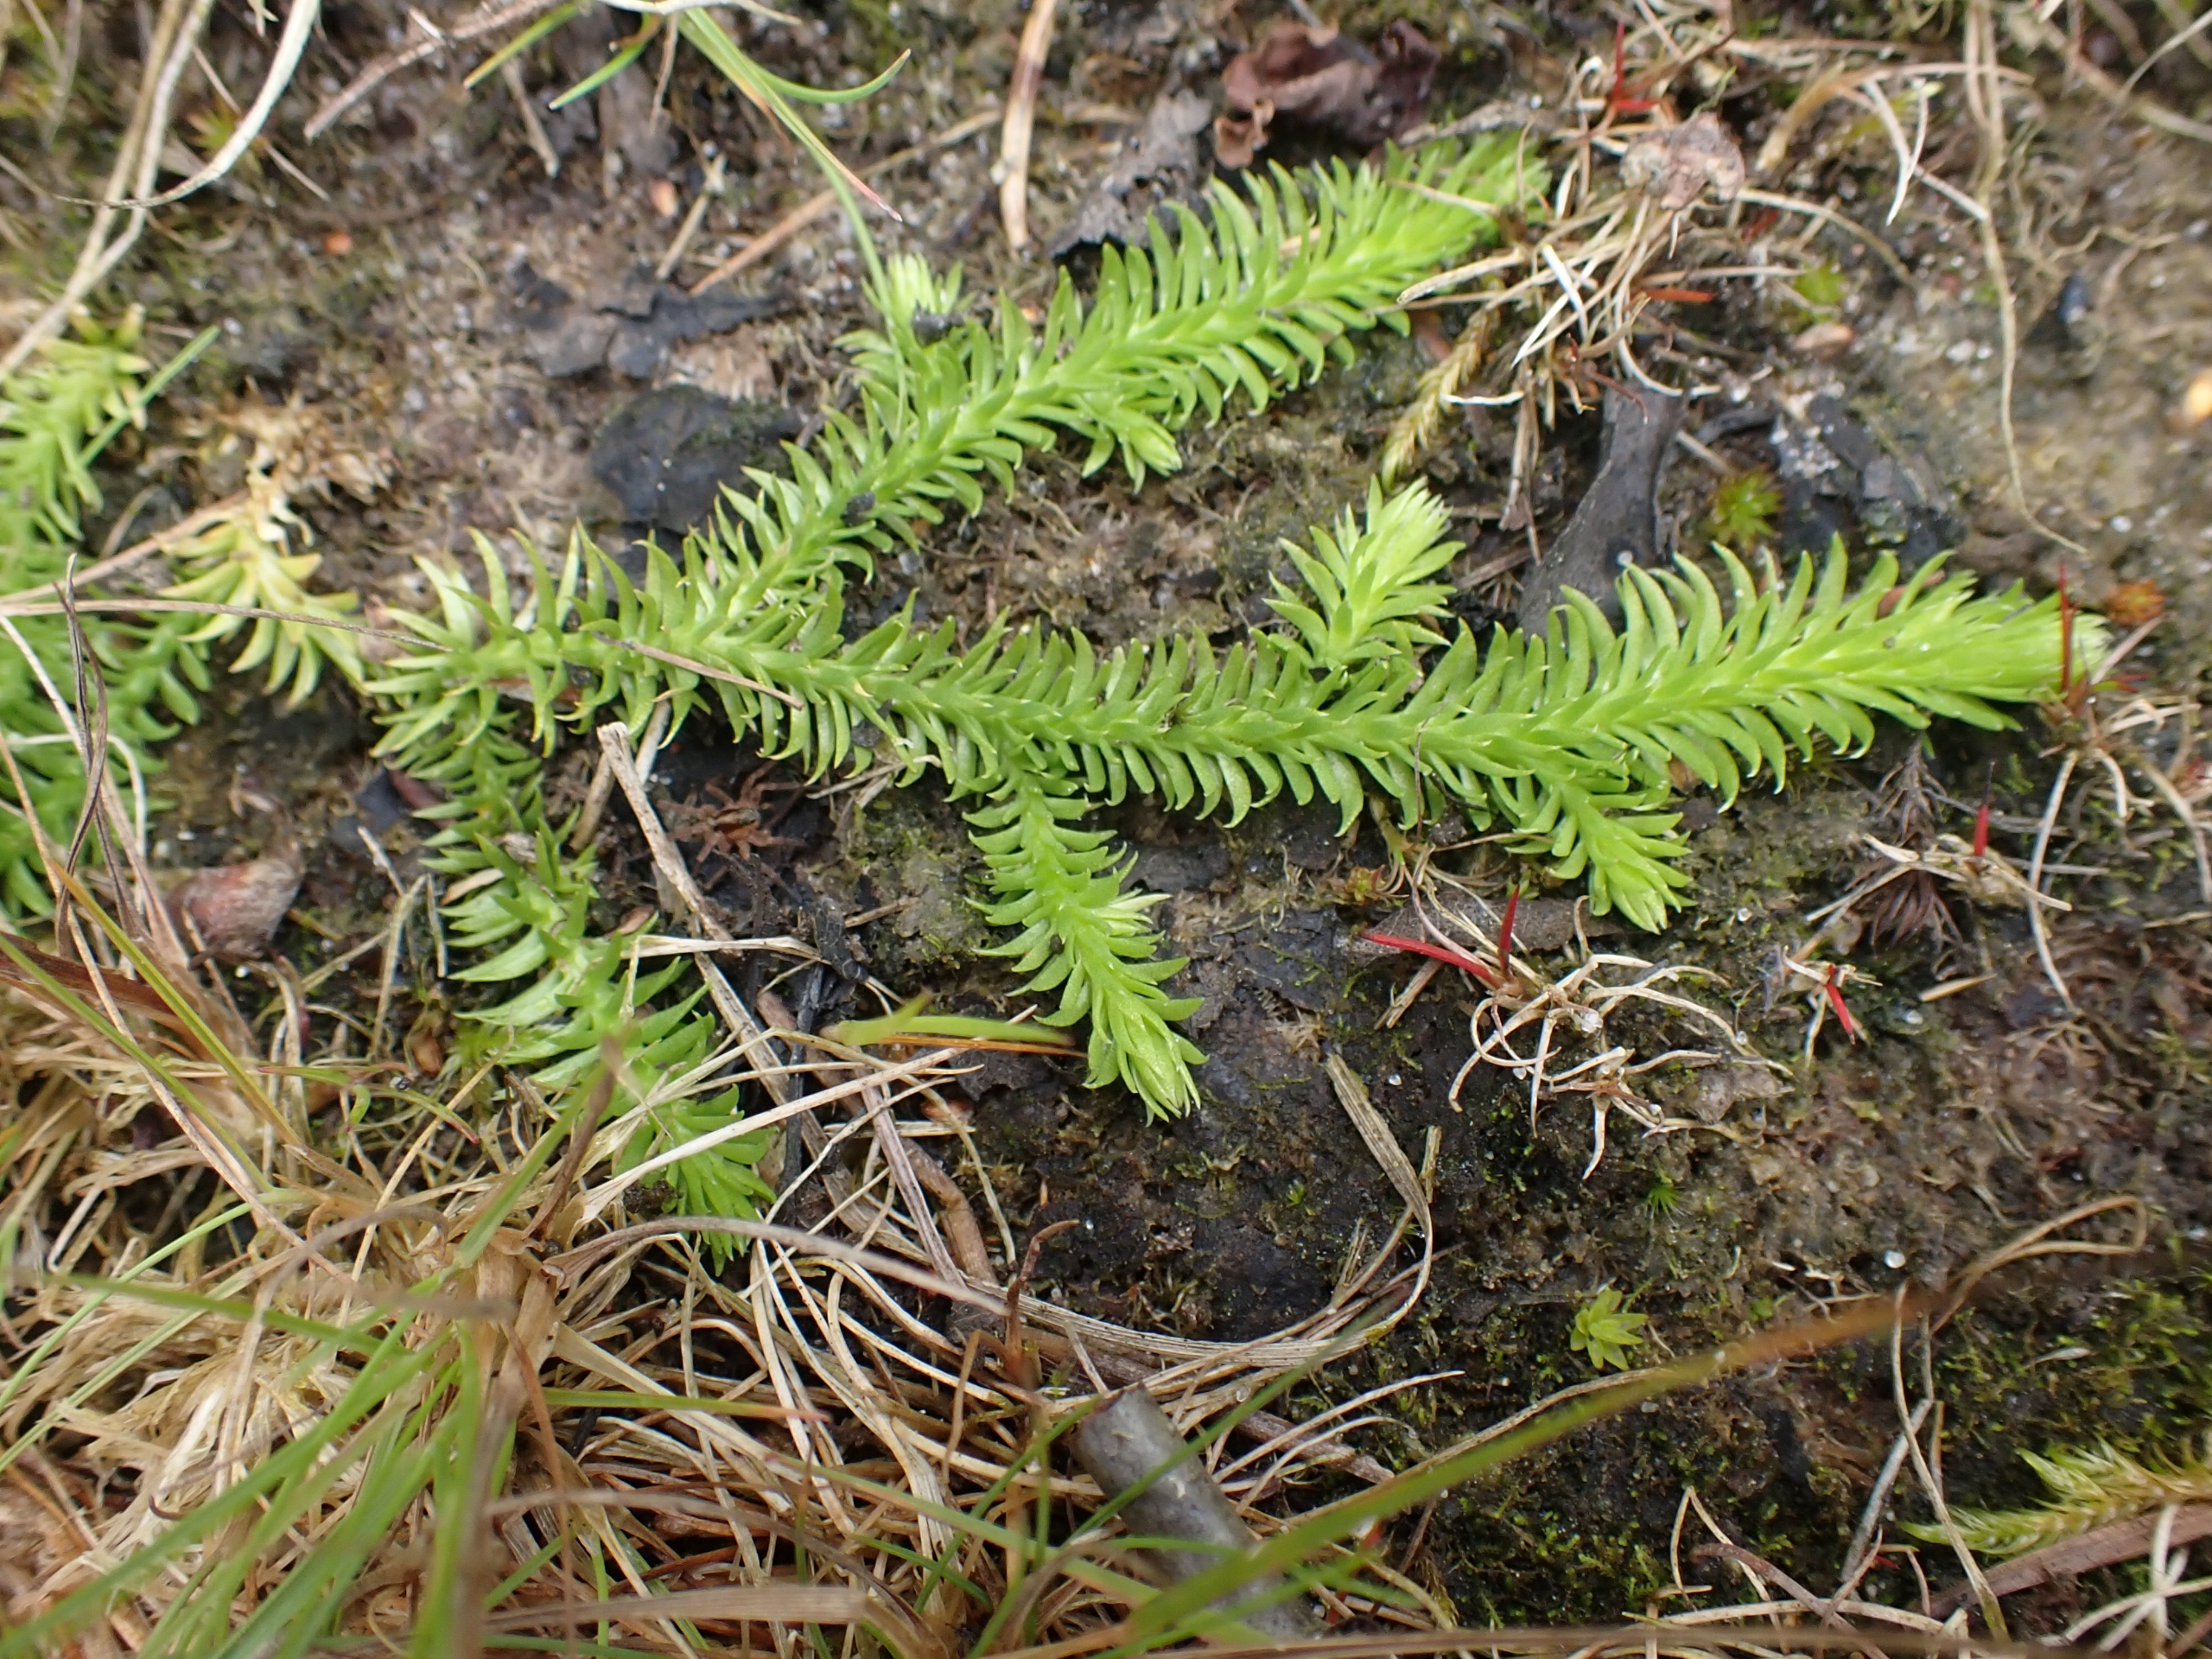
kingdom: Plantae
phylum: Tracheophyta
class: Lycopodiopsida
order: Lycopodiales
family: Lycopodiaceae
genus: Lycopodiella
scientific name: Lycopodiella inundata
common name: Liden ulvefod
